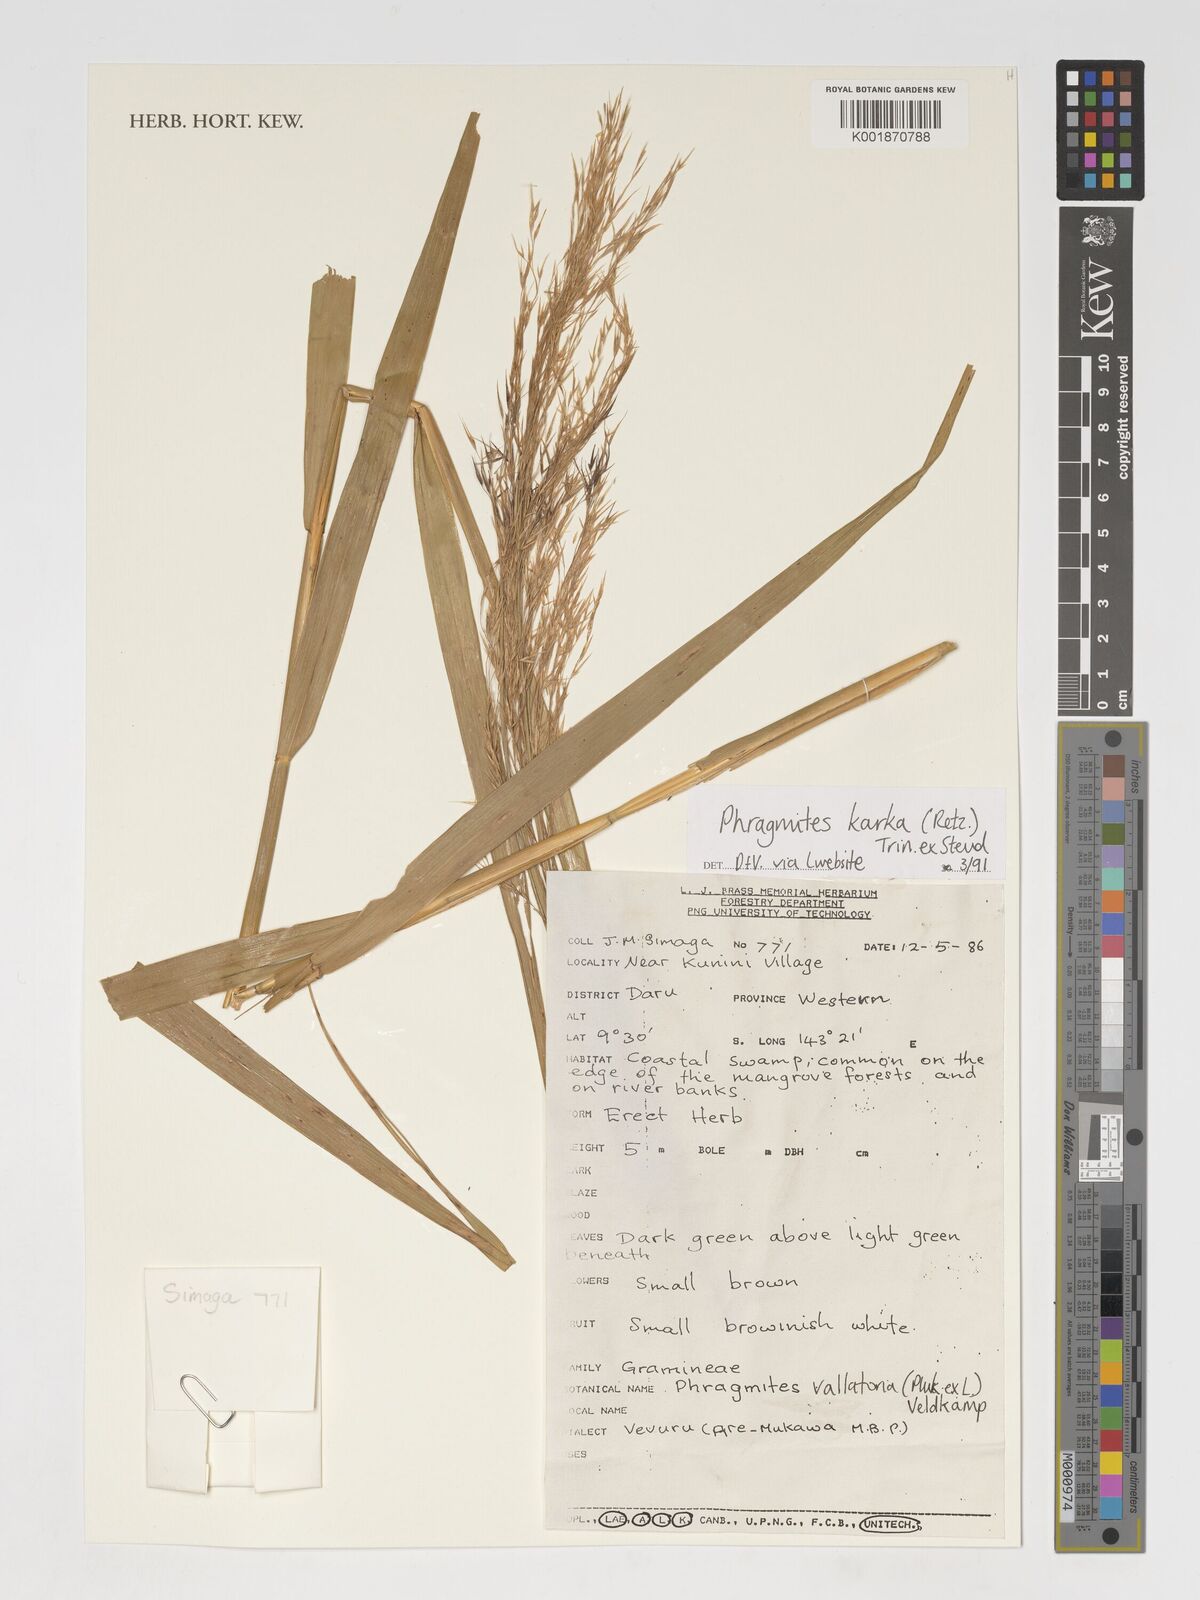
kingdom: Plantae
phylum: Tracheophyta
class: Liliopsida
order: Poales
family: Poaceae
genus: Phragmites
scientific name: Phragmites karka
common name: Tropical reed
